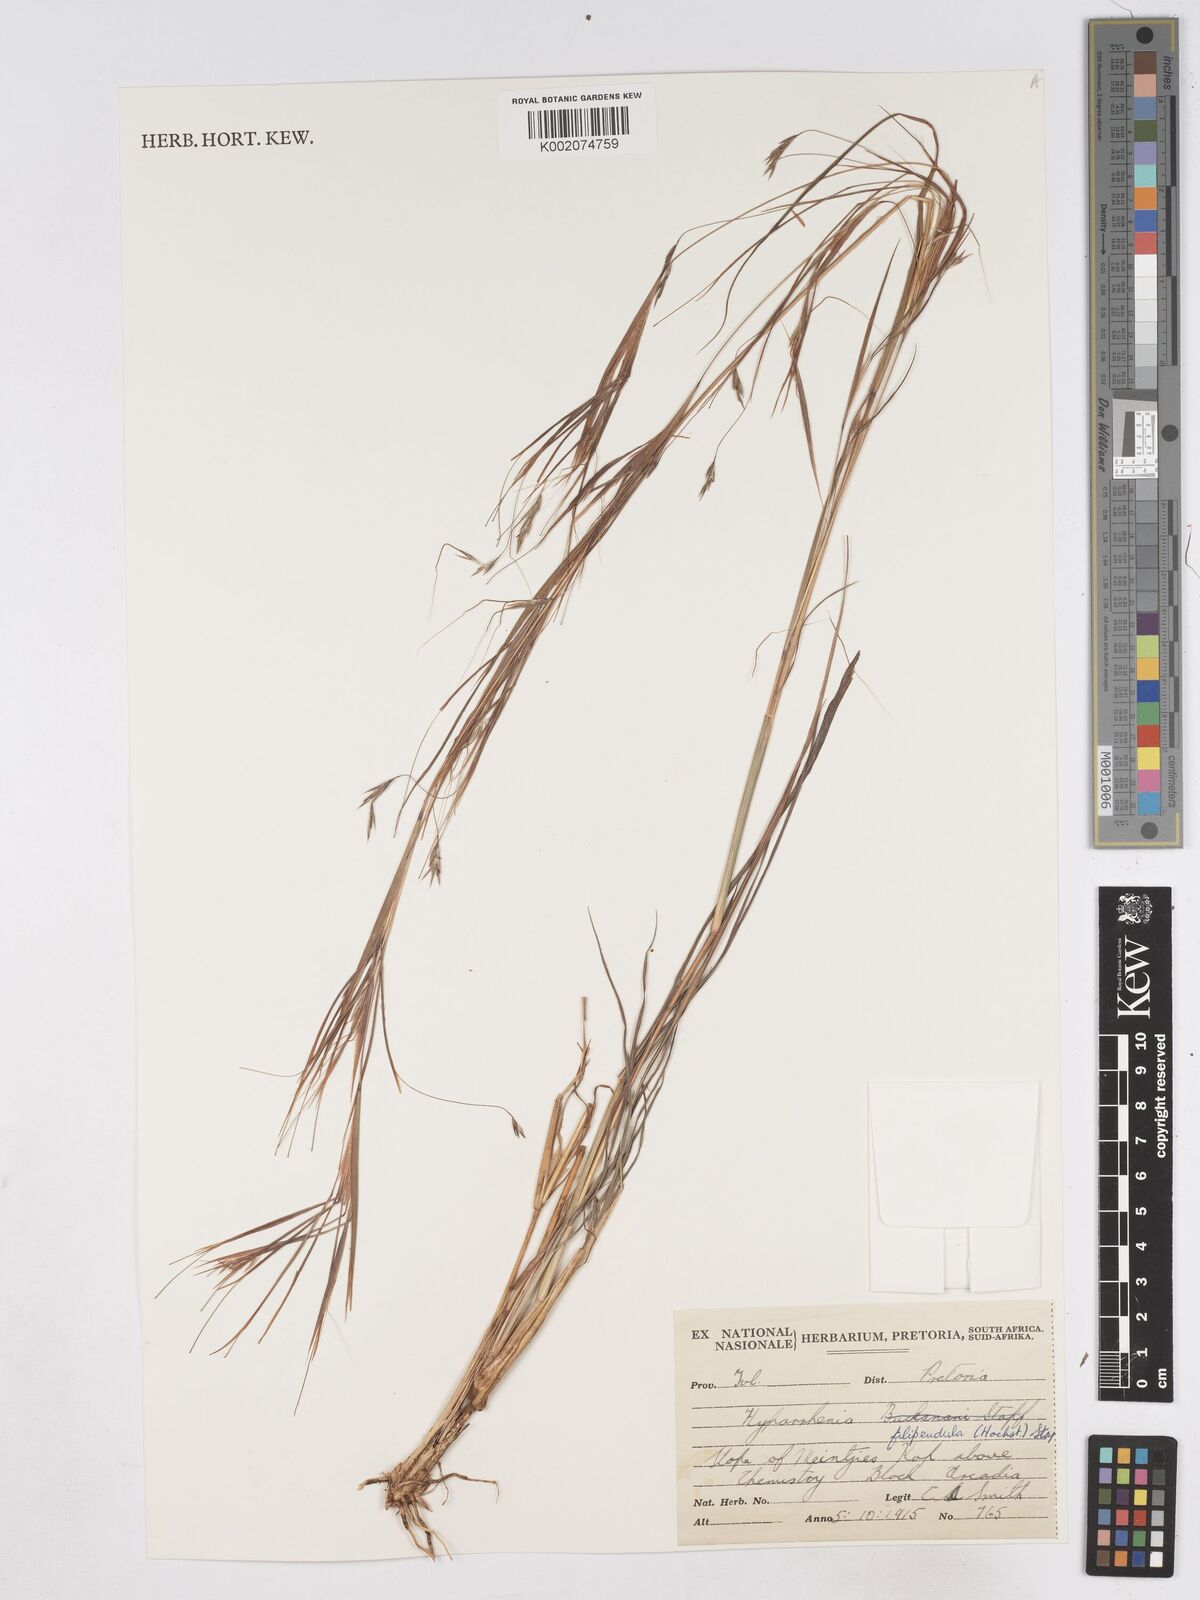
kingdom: Plantae
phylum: Tracheophyta
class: Liliopsida
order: Poales
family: Poaceae
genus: Hyparrhenia
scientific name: Hyparrhenia filipendula
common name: Tambookie grass
